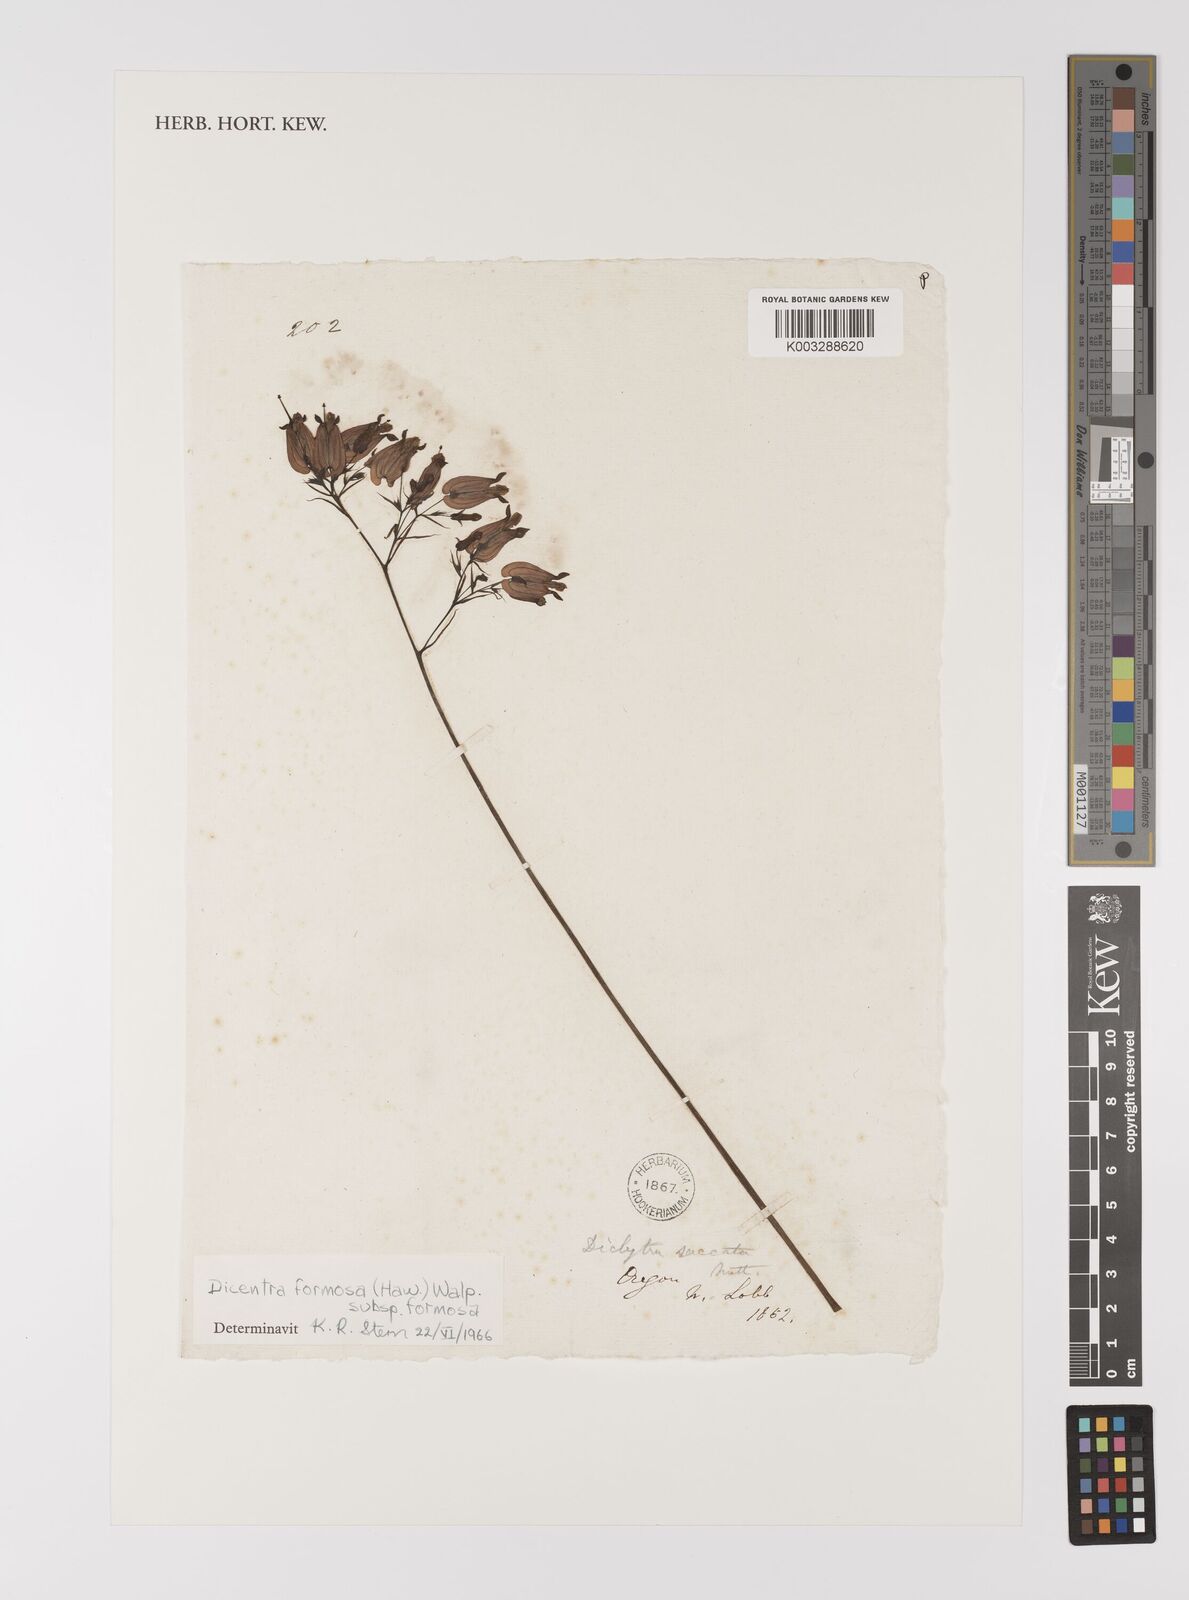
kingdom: Plantae
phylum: Tracheophyta
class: Magnoliopsida
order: Ranunculales
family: Papaveraceae
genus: Dicentra
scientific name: Dicentra formosa
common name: Bleeding-heart
